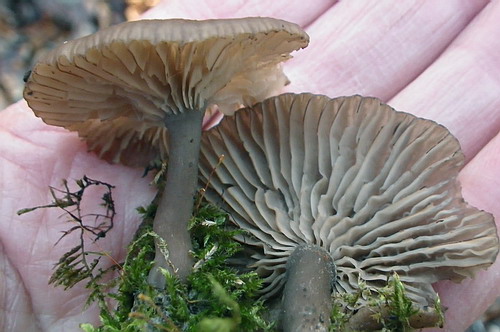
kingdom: Fungi
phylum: Basidiomycota
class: Agaricomycetes
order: Agaricales
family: Pseudoclitocybaceae
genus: Pseudoclitocybe
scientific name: Pseudoclitocybe cyathiformis
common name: almindelig bægertragthat
